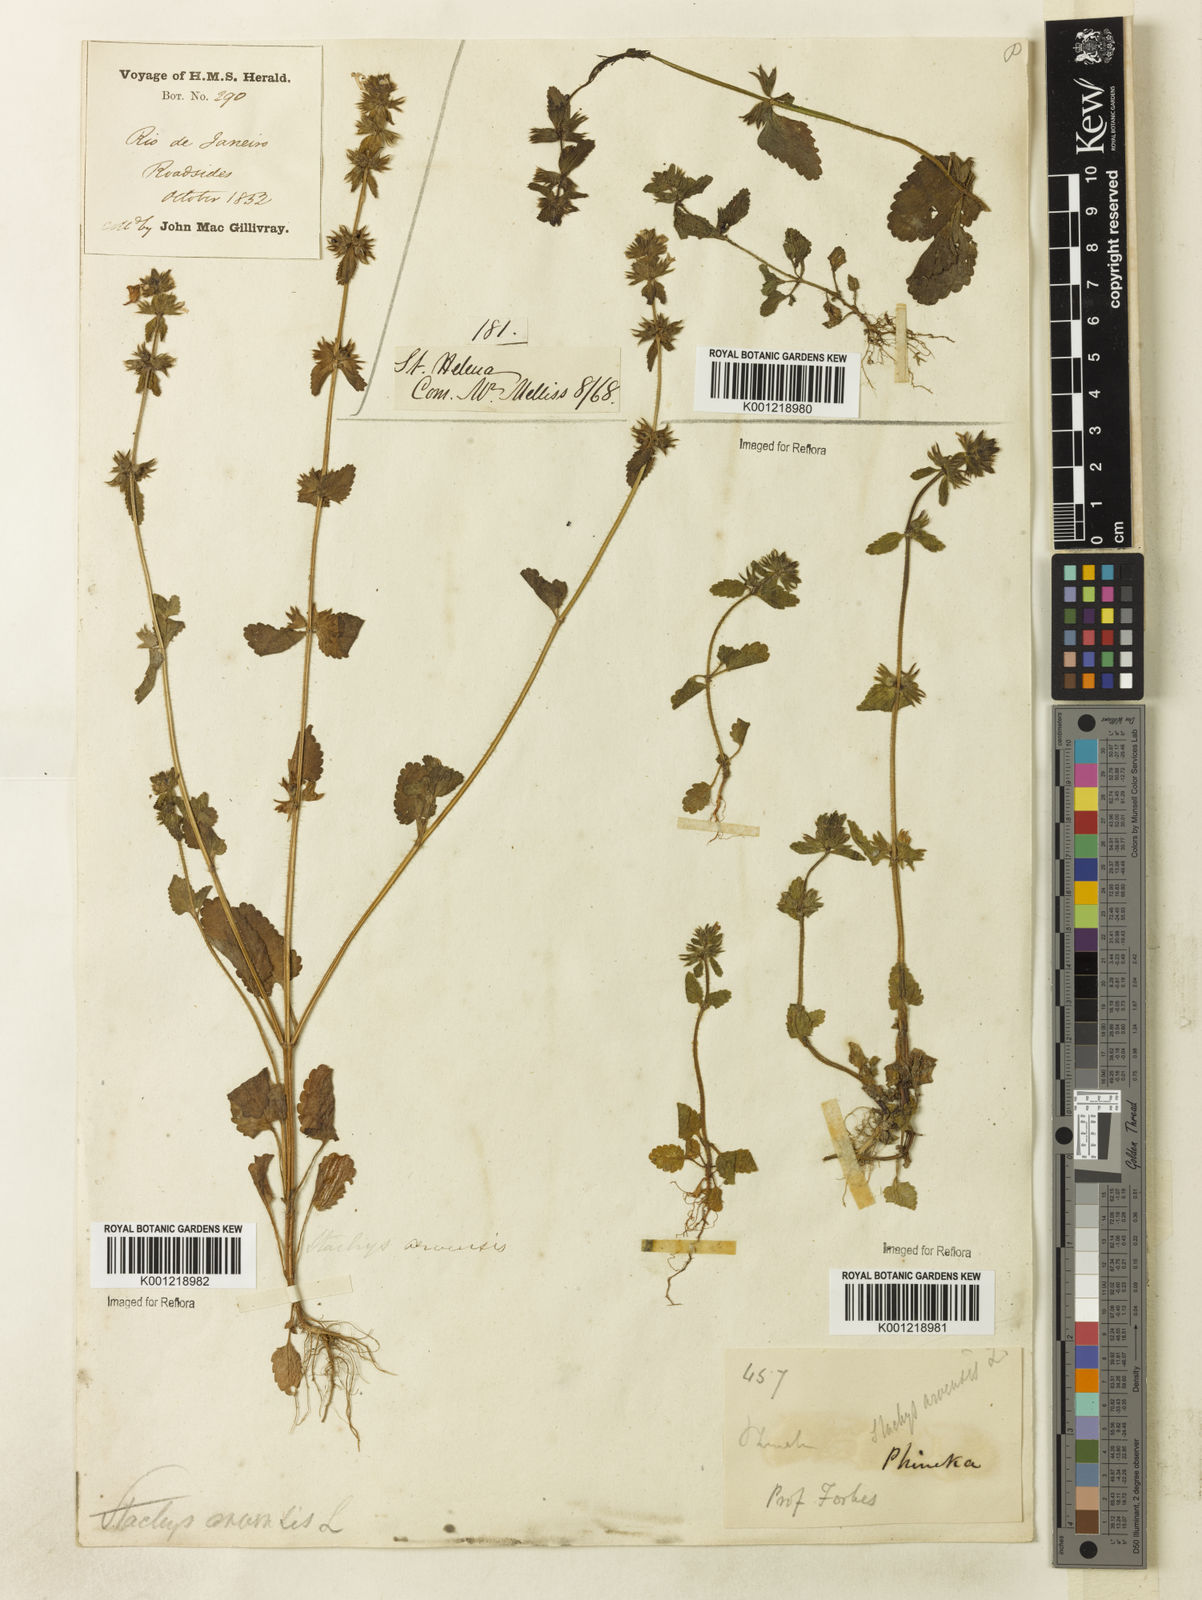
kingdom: Plantae
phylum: Tracheophyta
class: Magnoliopsida
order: Lamiales
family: Lamiaceae
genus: Stachys
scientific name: Stachys arvensis
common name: Field woundwort
